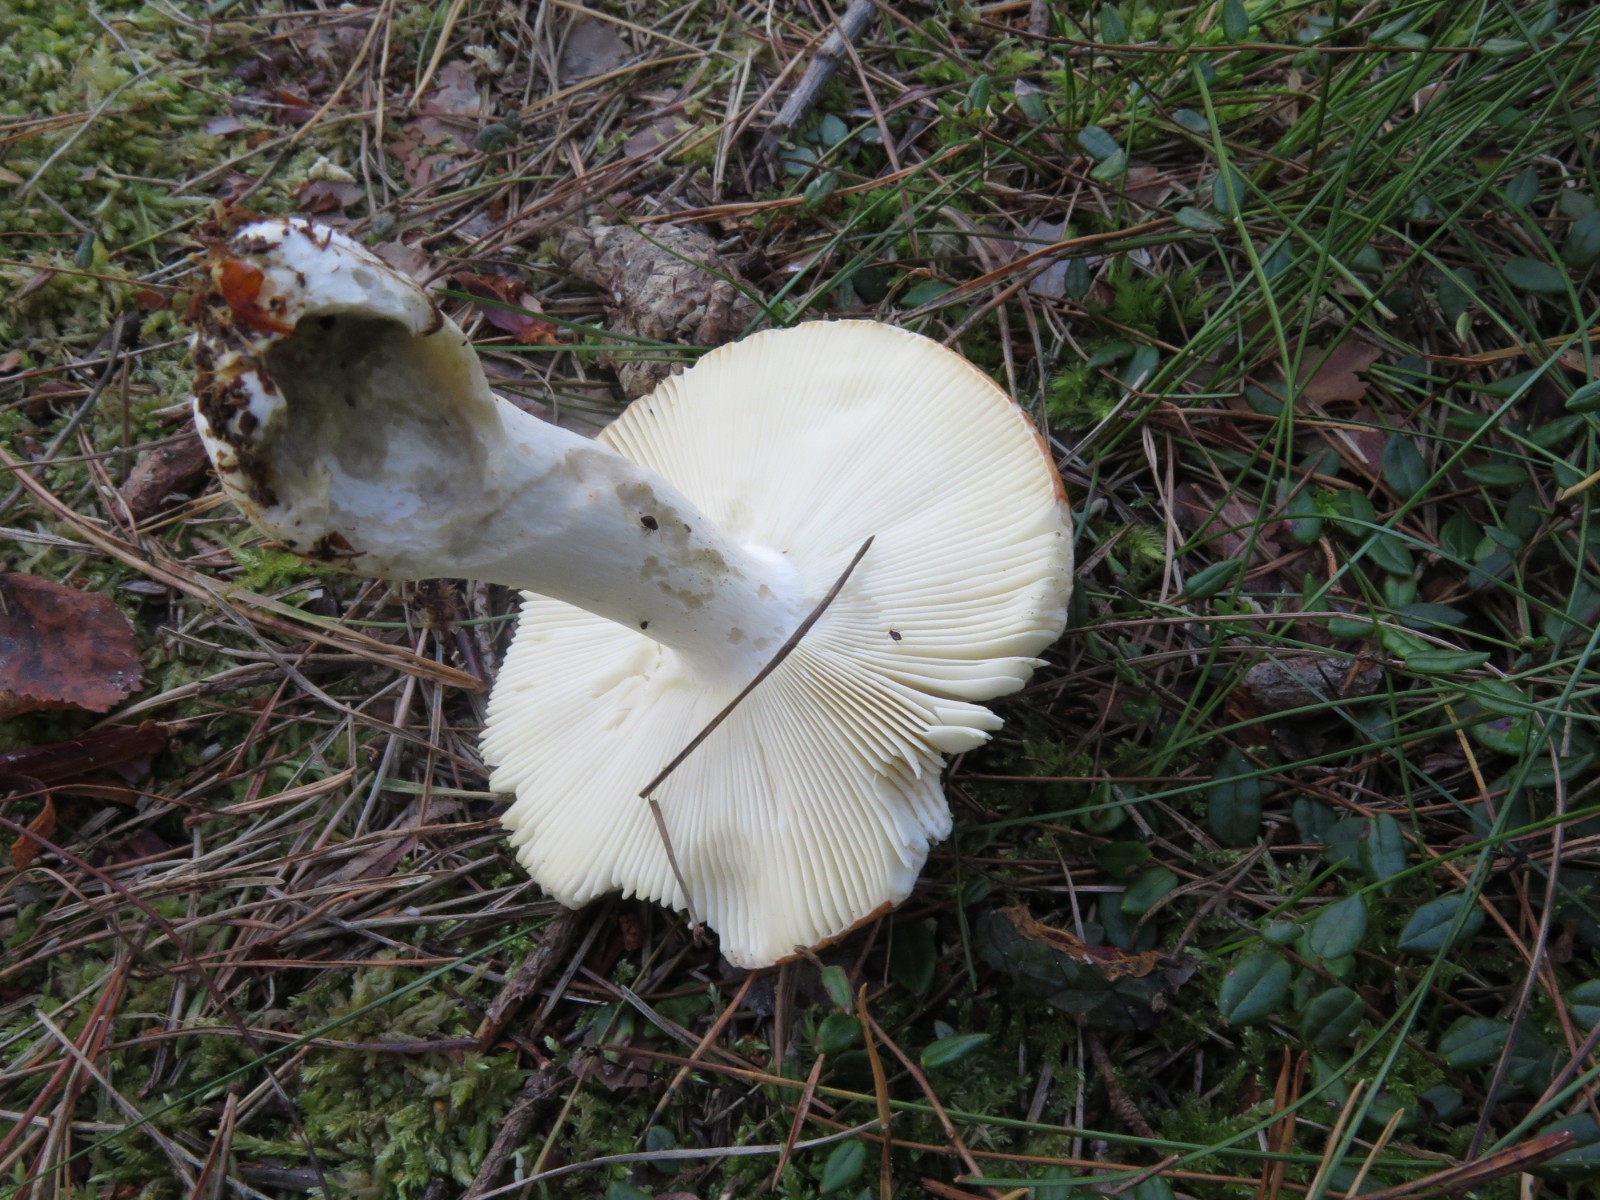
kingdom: Fungi
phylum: Basidiomycota
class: Agaricomycetes
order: Russulales
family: Russulaceae
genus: Russula
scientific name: Russula decolorans
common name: afblegende skørhat
